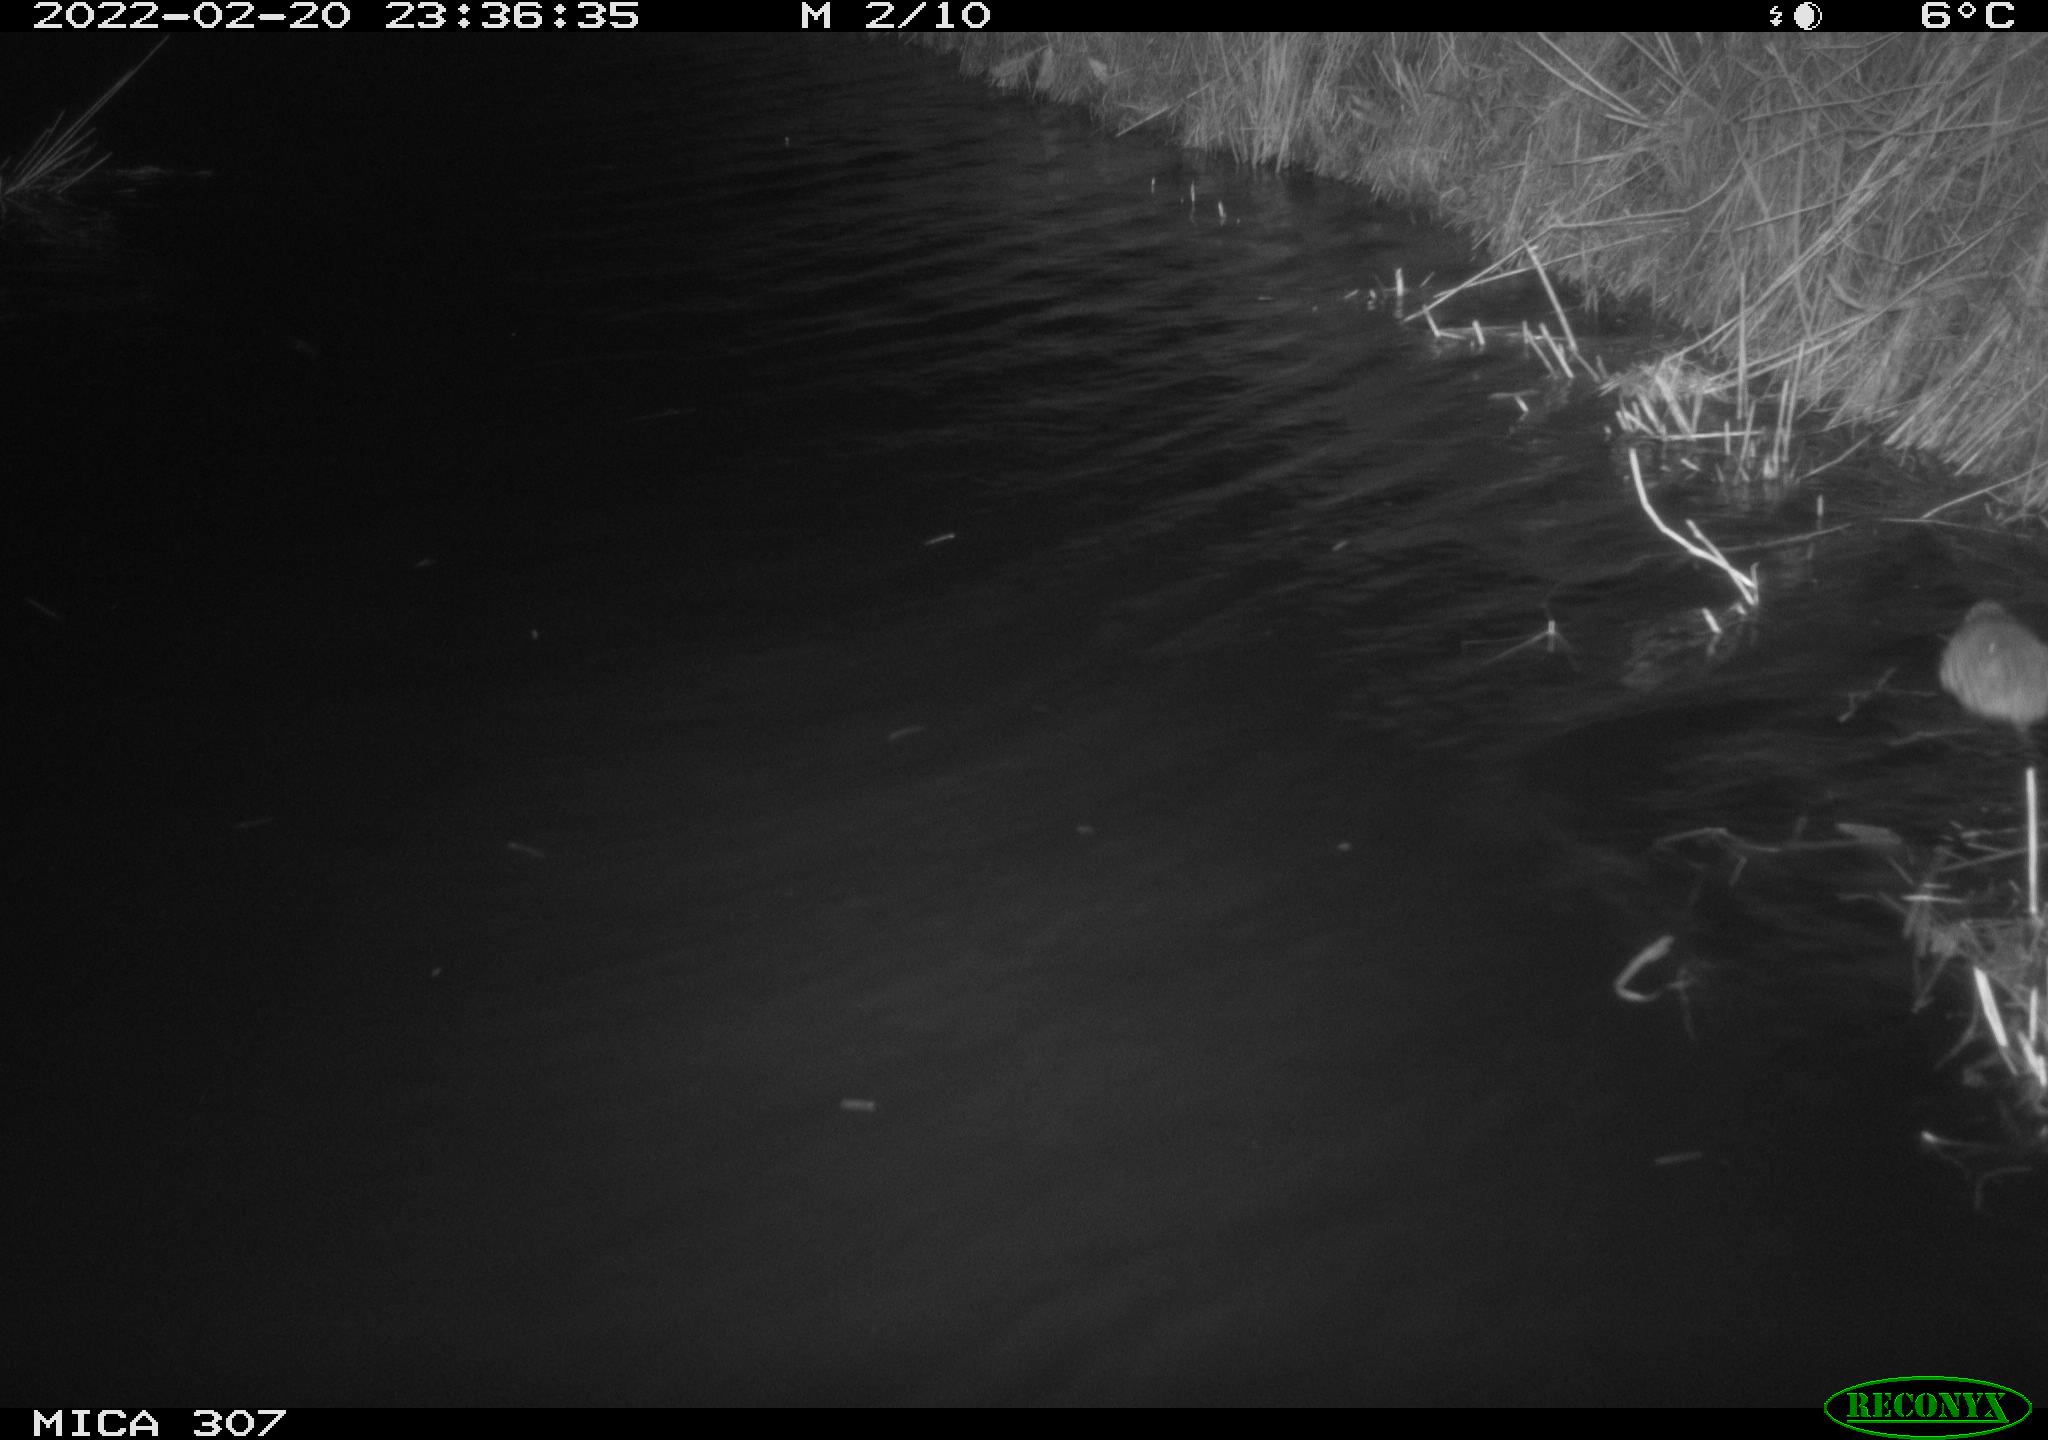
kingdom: Animalia
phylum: Chordata
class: Mammalia
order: Rodentia
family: Muridae
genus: Rattus
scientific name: Rattus norvegicus
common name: Brown rat
